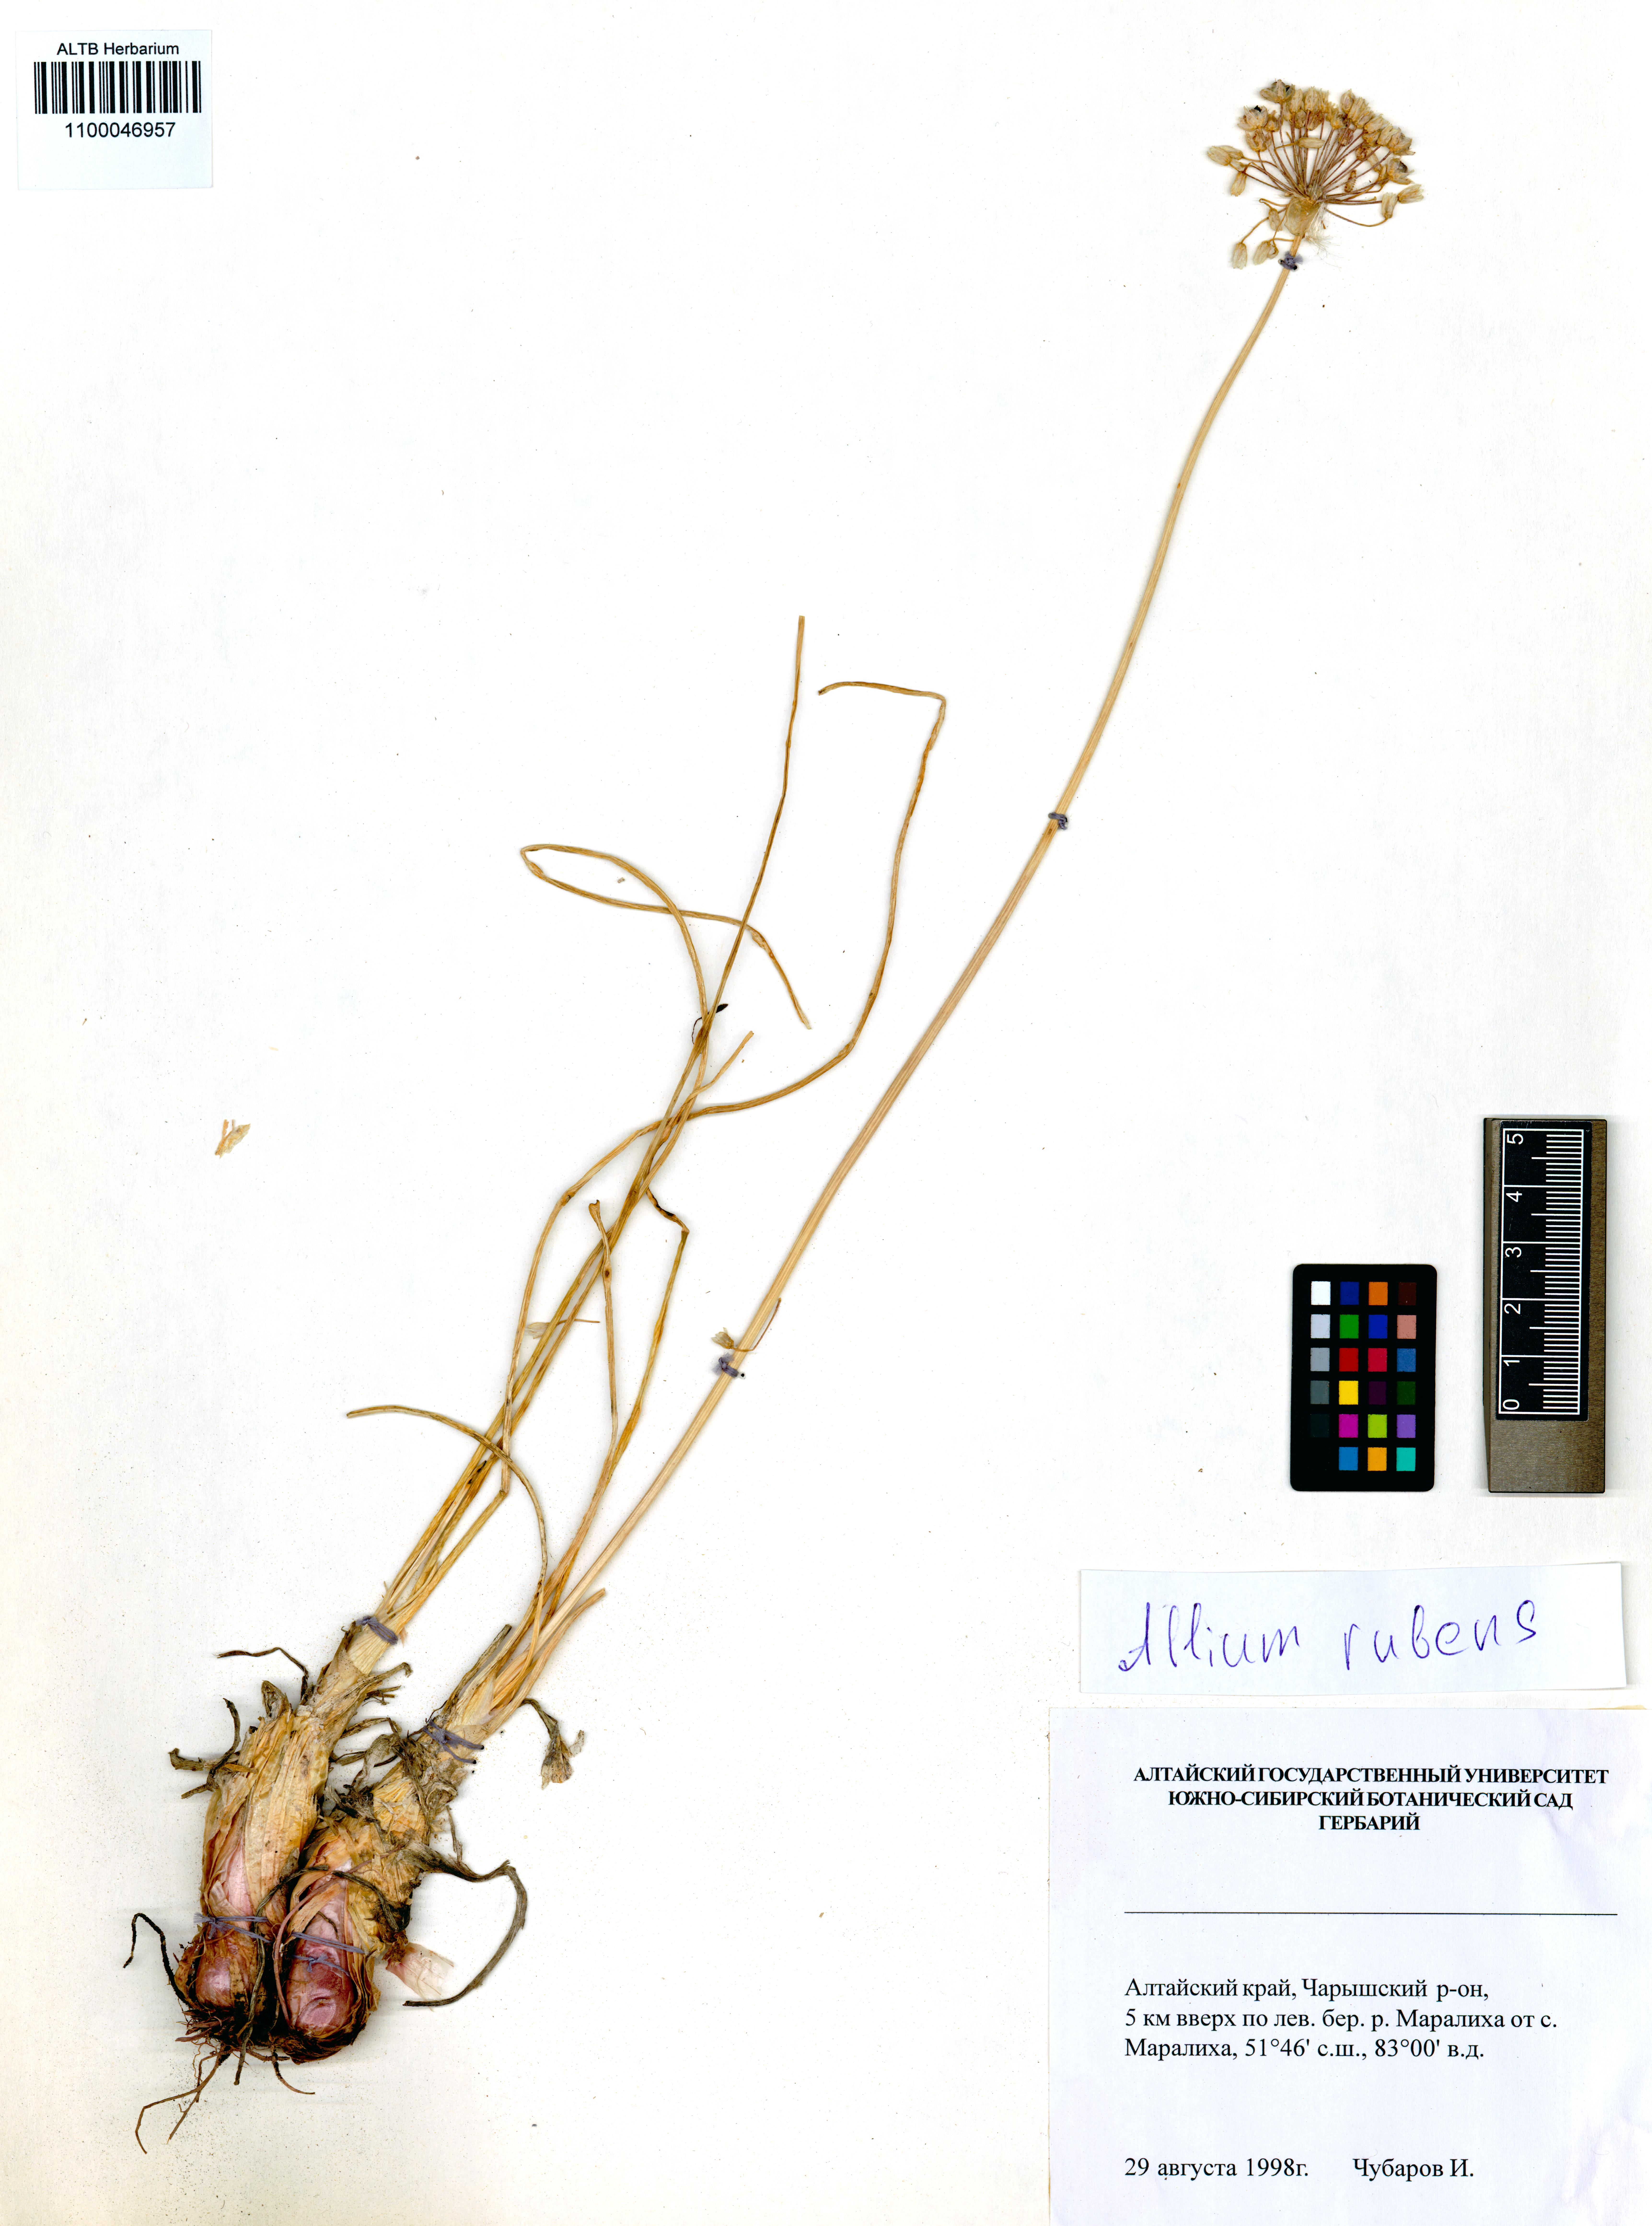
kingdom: Plantae
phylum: Tracheophyta
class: Liliopsida
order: Asparagales
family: Amaryllidaceae
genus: Allium
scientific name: Allium rubens
